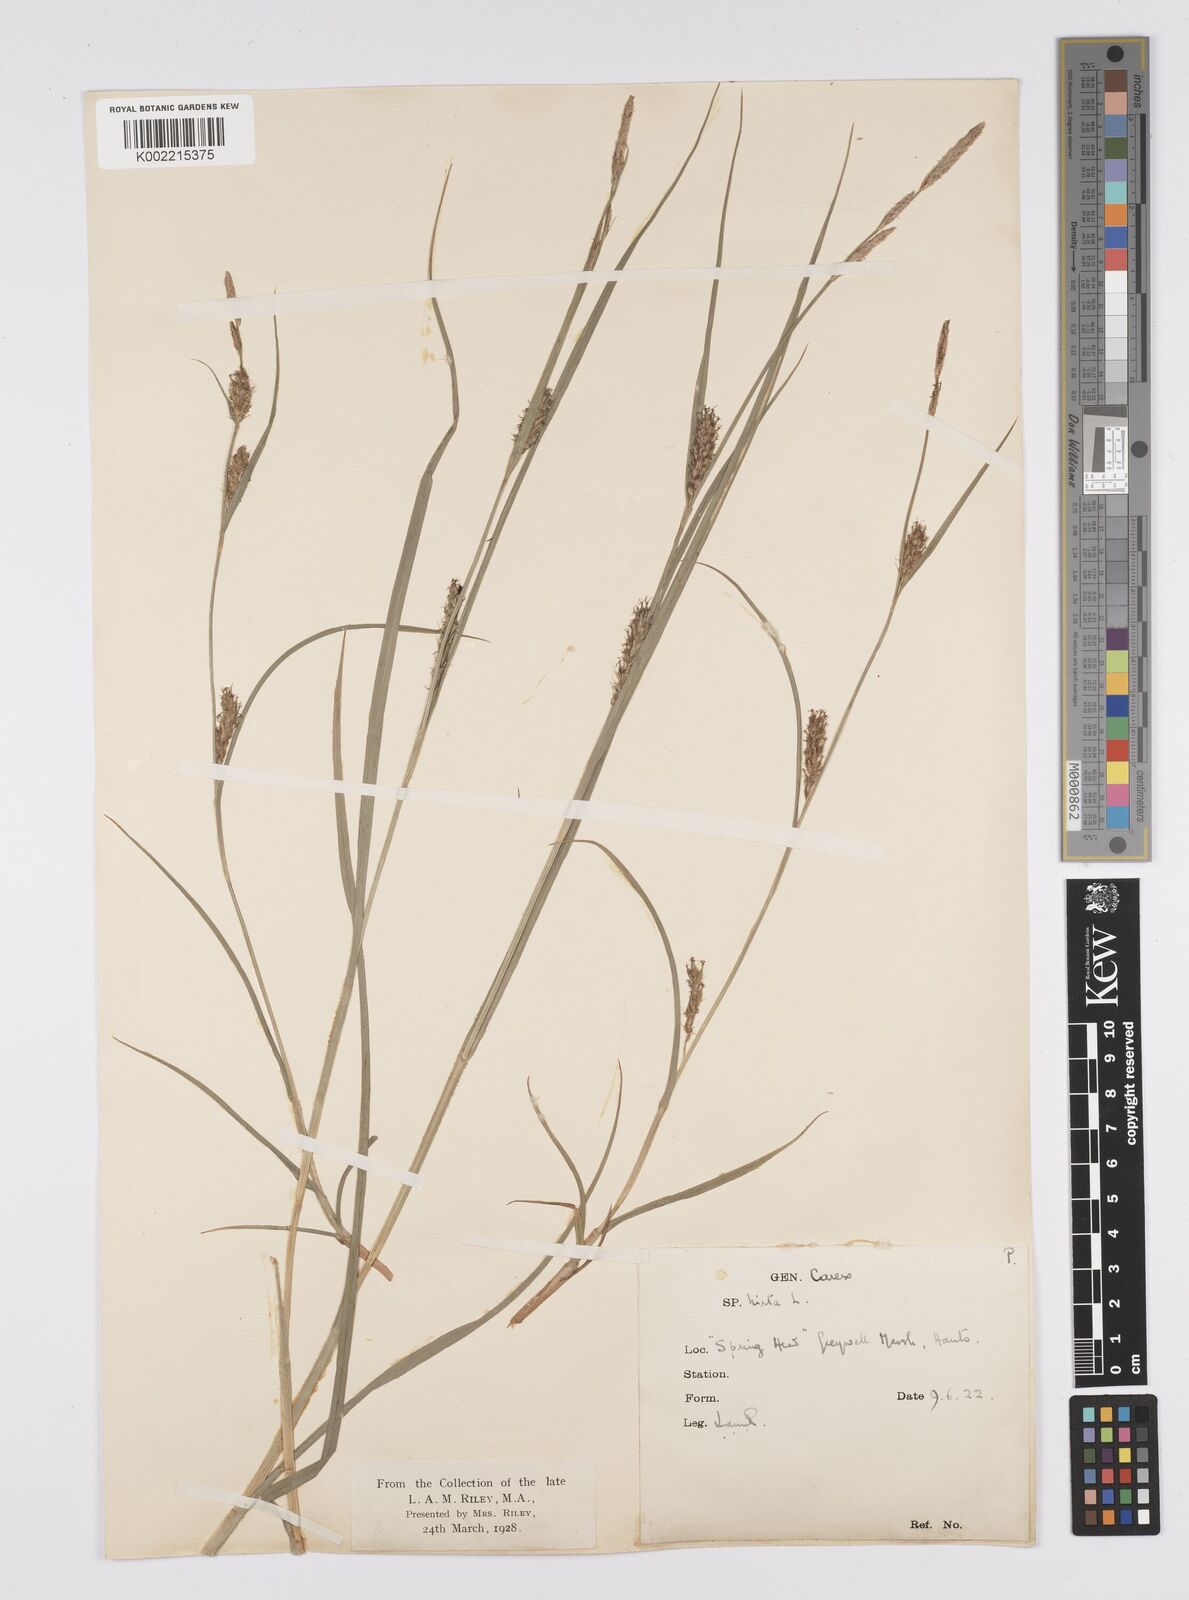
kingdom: Plantae
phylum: Tracheophyta
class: Liliopsida
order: Poales
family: Cyperaceae
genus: Carex
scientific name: Carex hirta
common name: Hairy sedge
